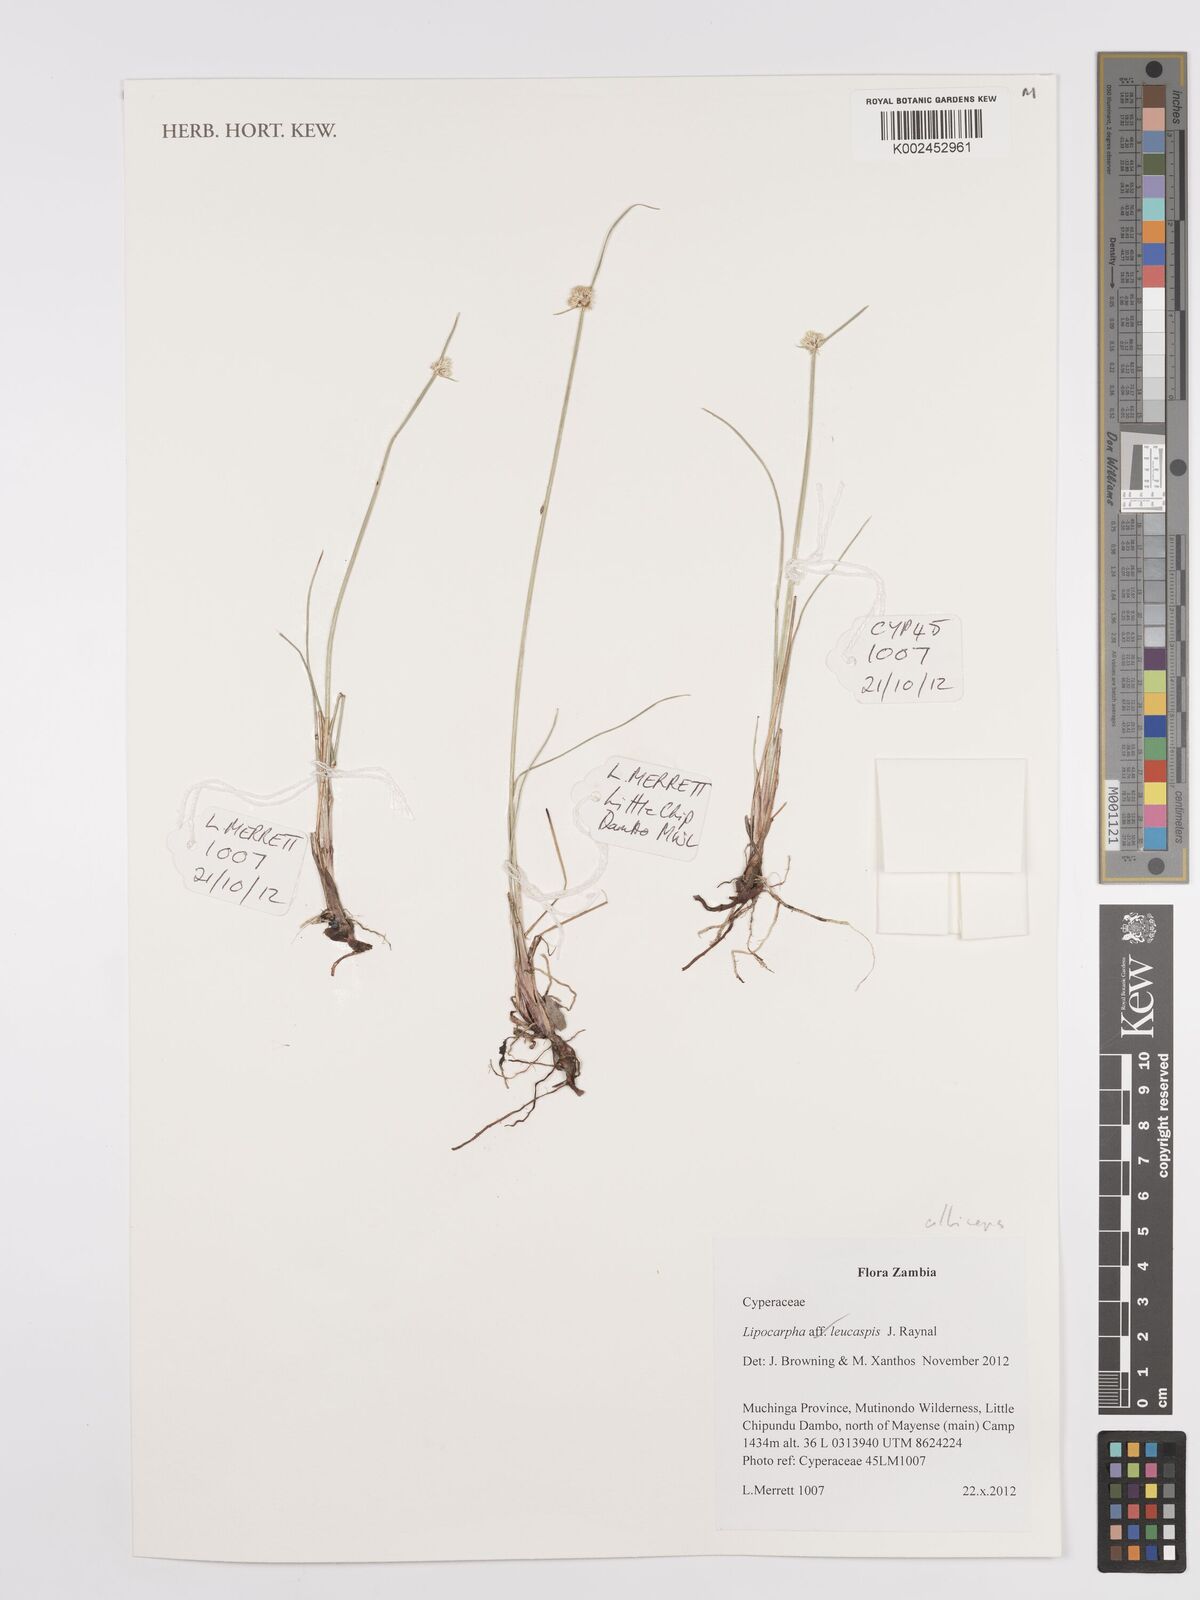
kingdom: Plantae
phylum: Tracheophyta
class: Liliopsida
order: Poales
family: Cyperaceae
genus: Cyperus
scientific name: Cyperus albiceps
